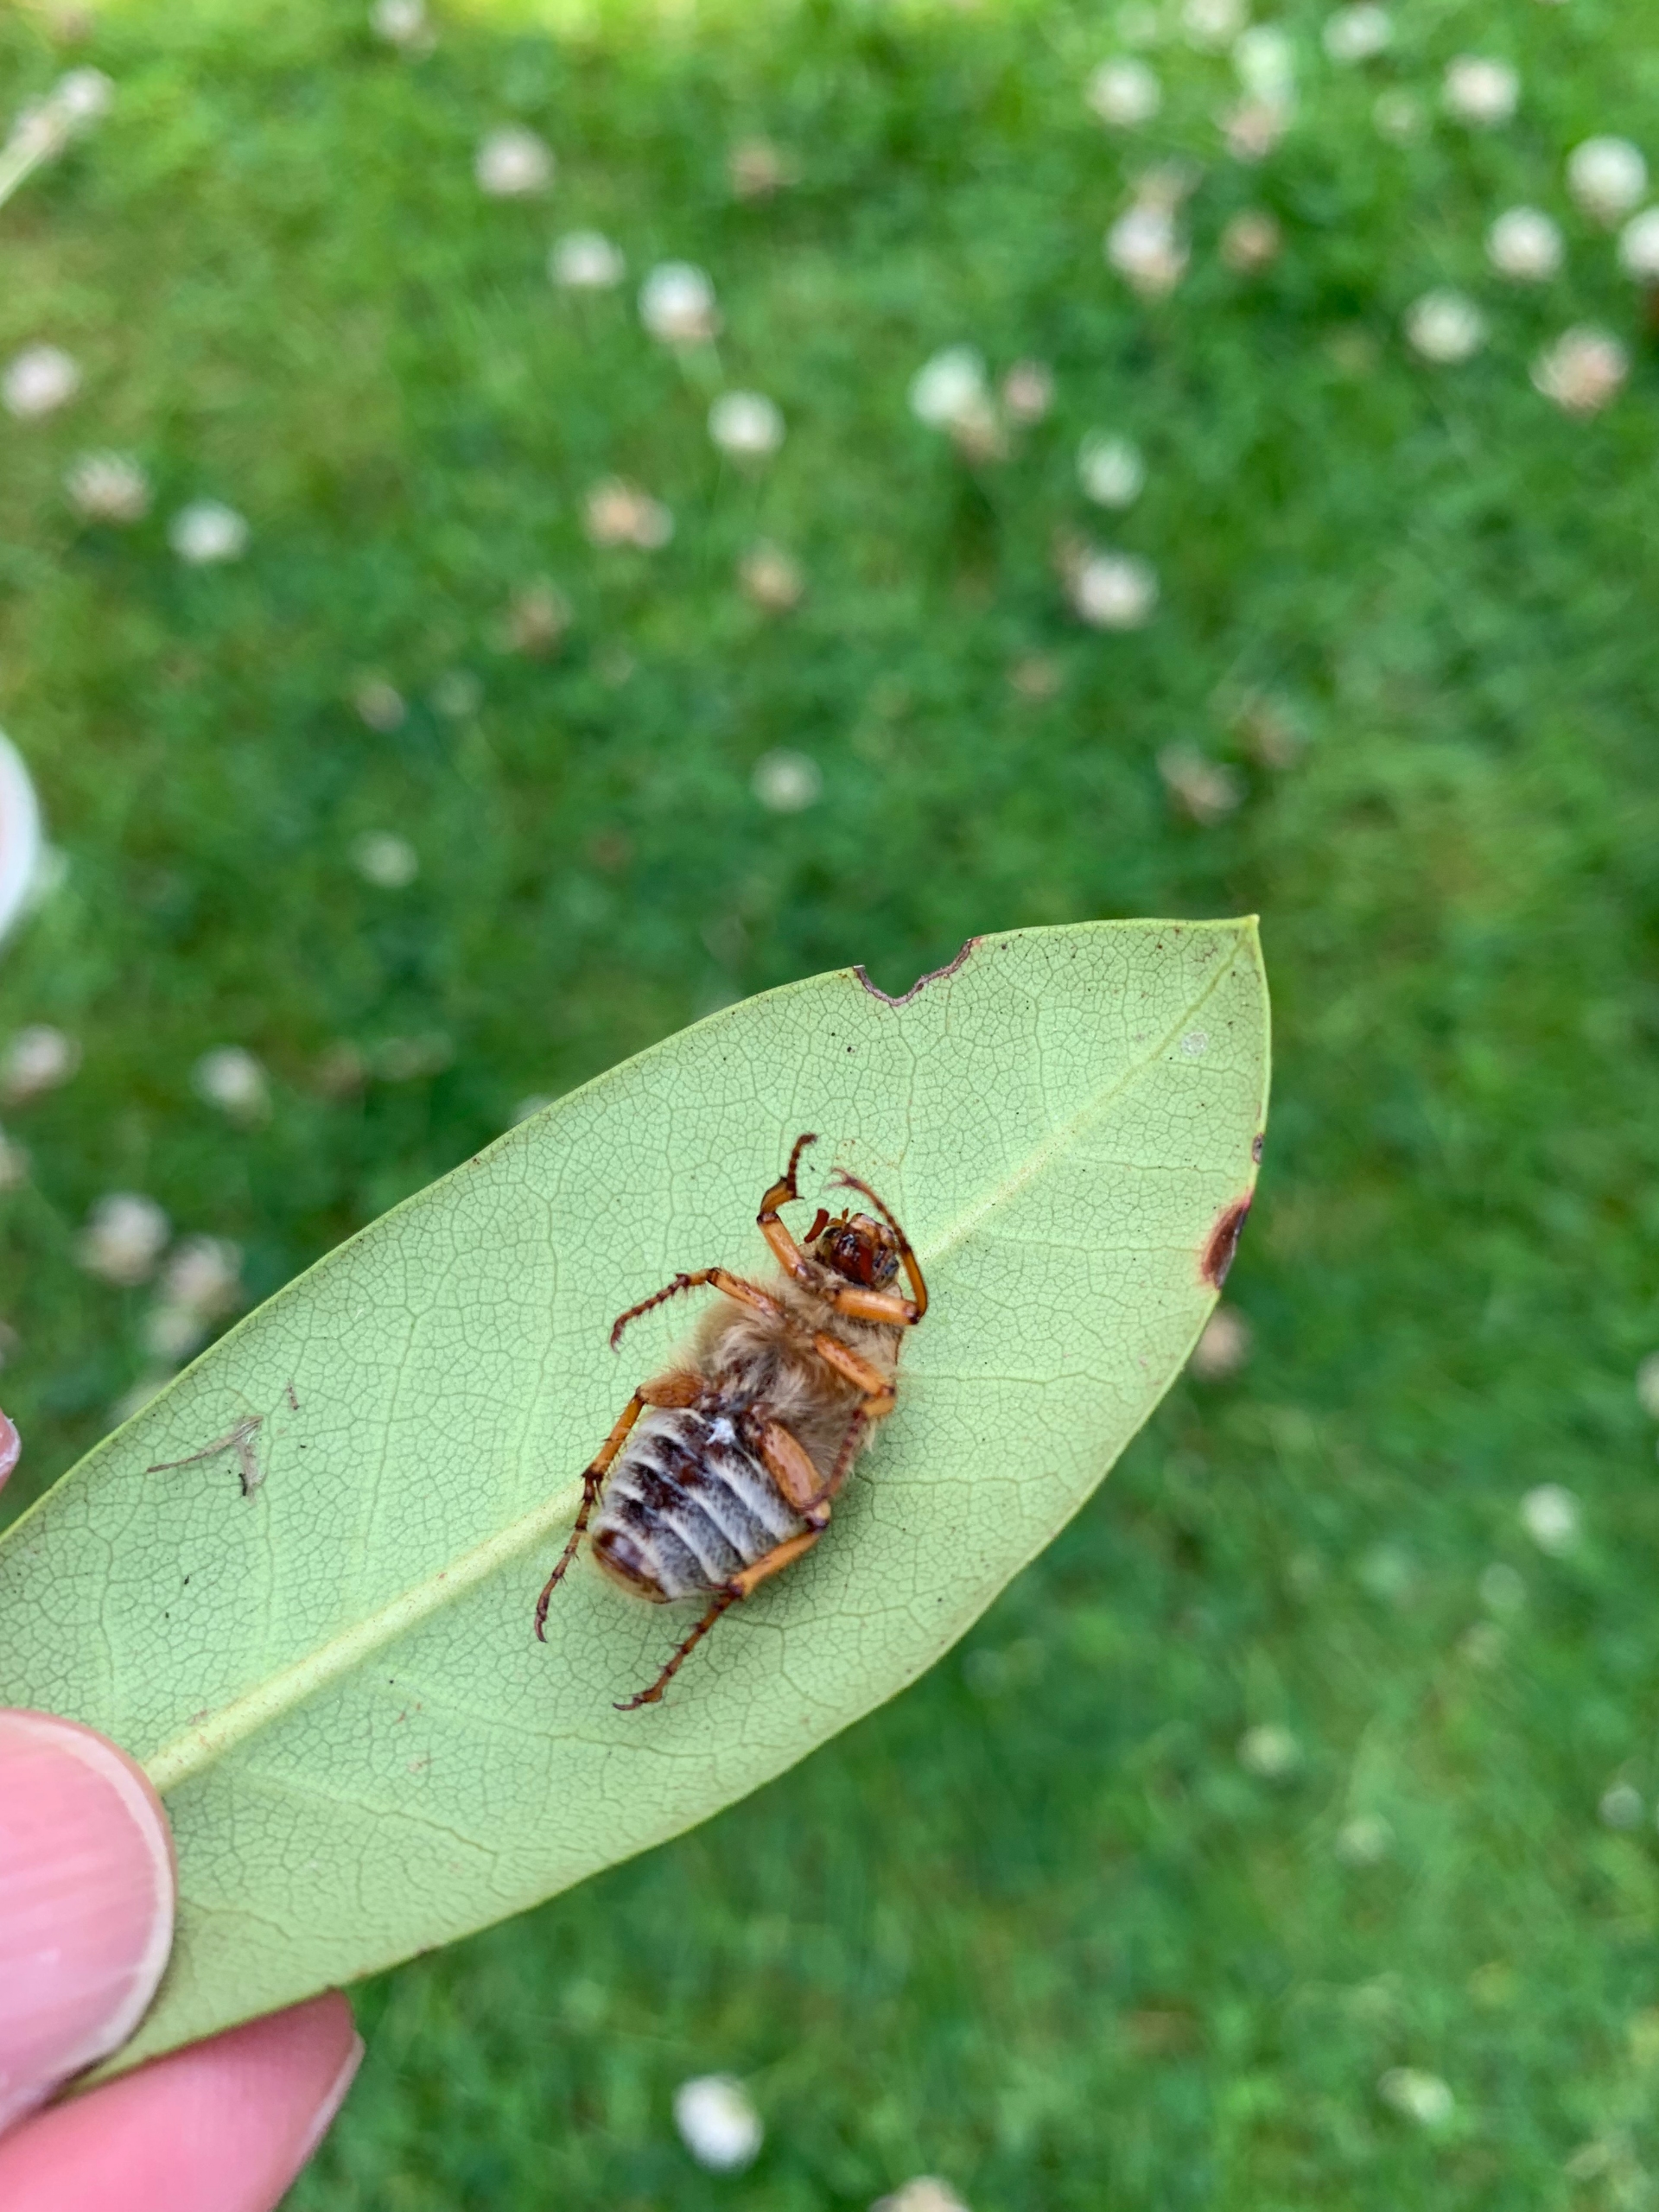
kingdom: Animalia
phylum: Arthropoda
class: Insecta
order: Coleoptera
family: Scarabaeidae
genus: Amphimallon
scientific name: Amphimallon solstitiale
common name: Sankthansoldenborre
